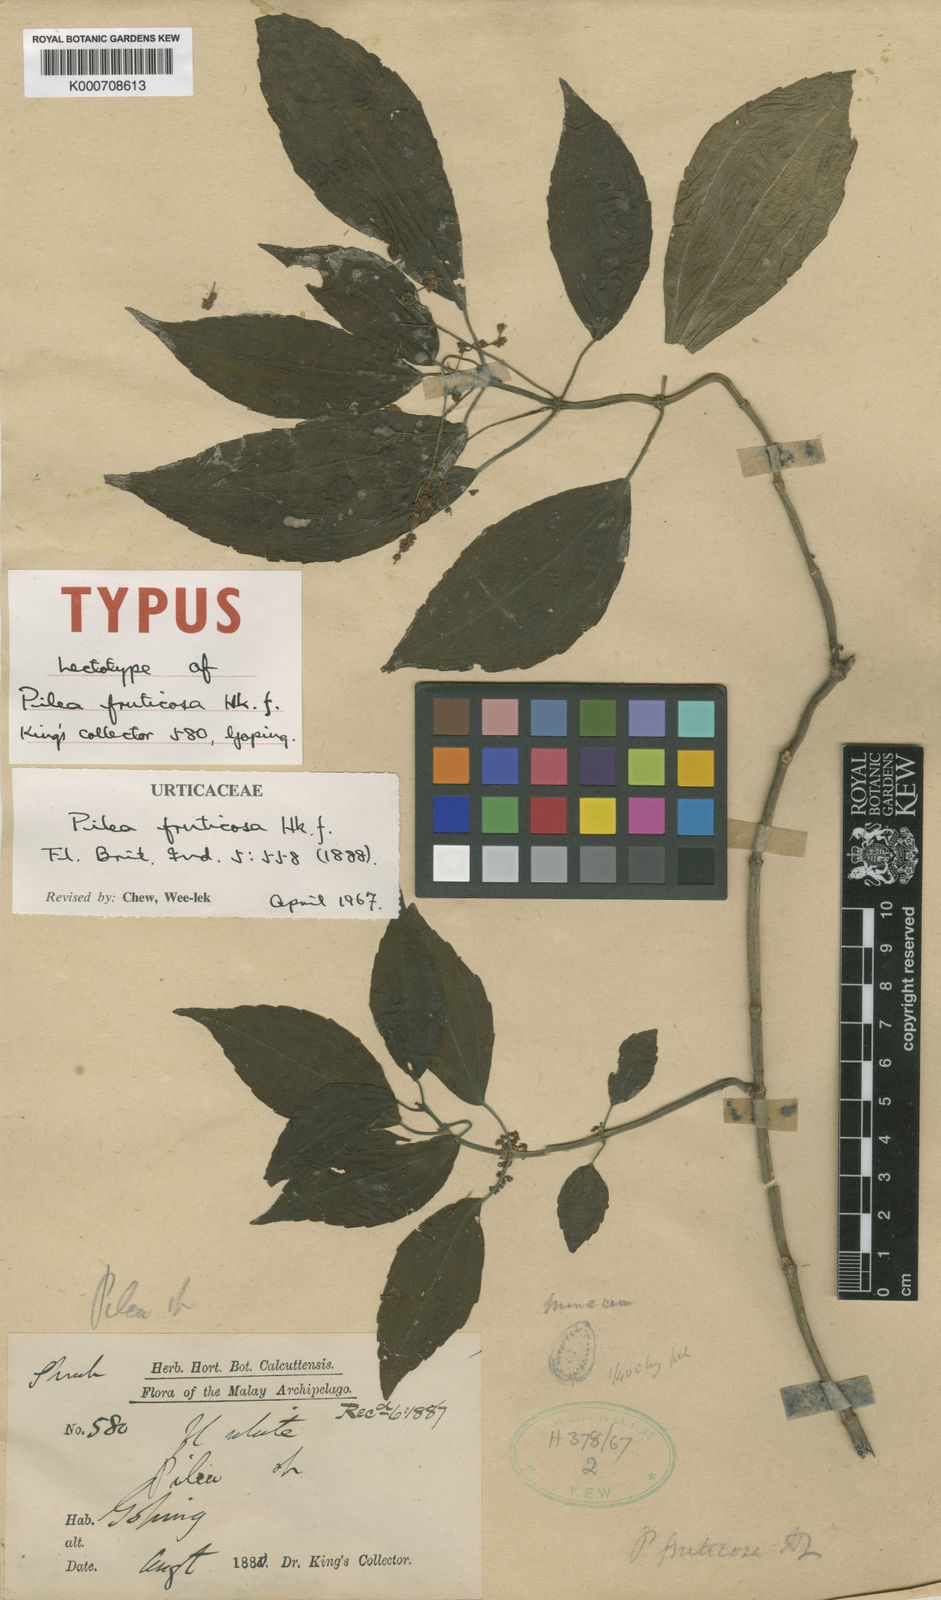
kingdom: Plantae
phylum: Tracheophyta
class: Magnoliopsida
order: Rosales
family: Urticaceae
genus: Pilea
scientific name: Pilea fruticosa
